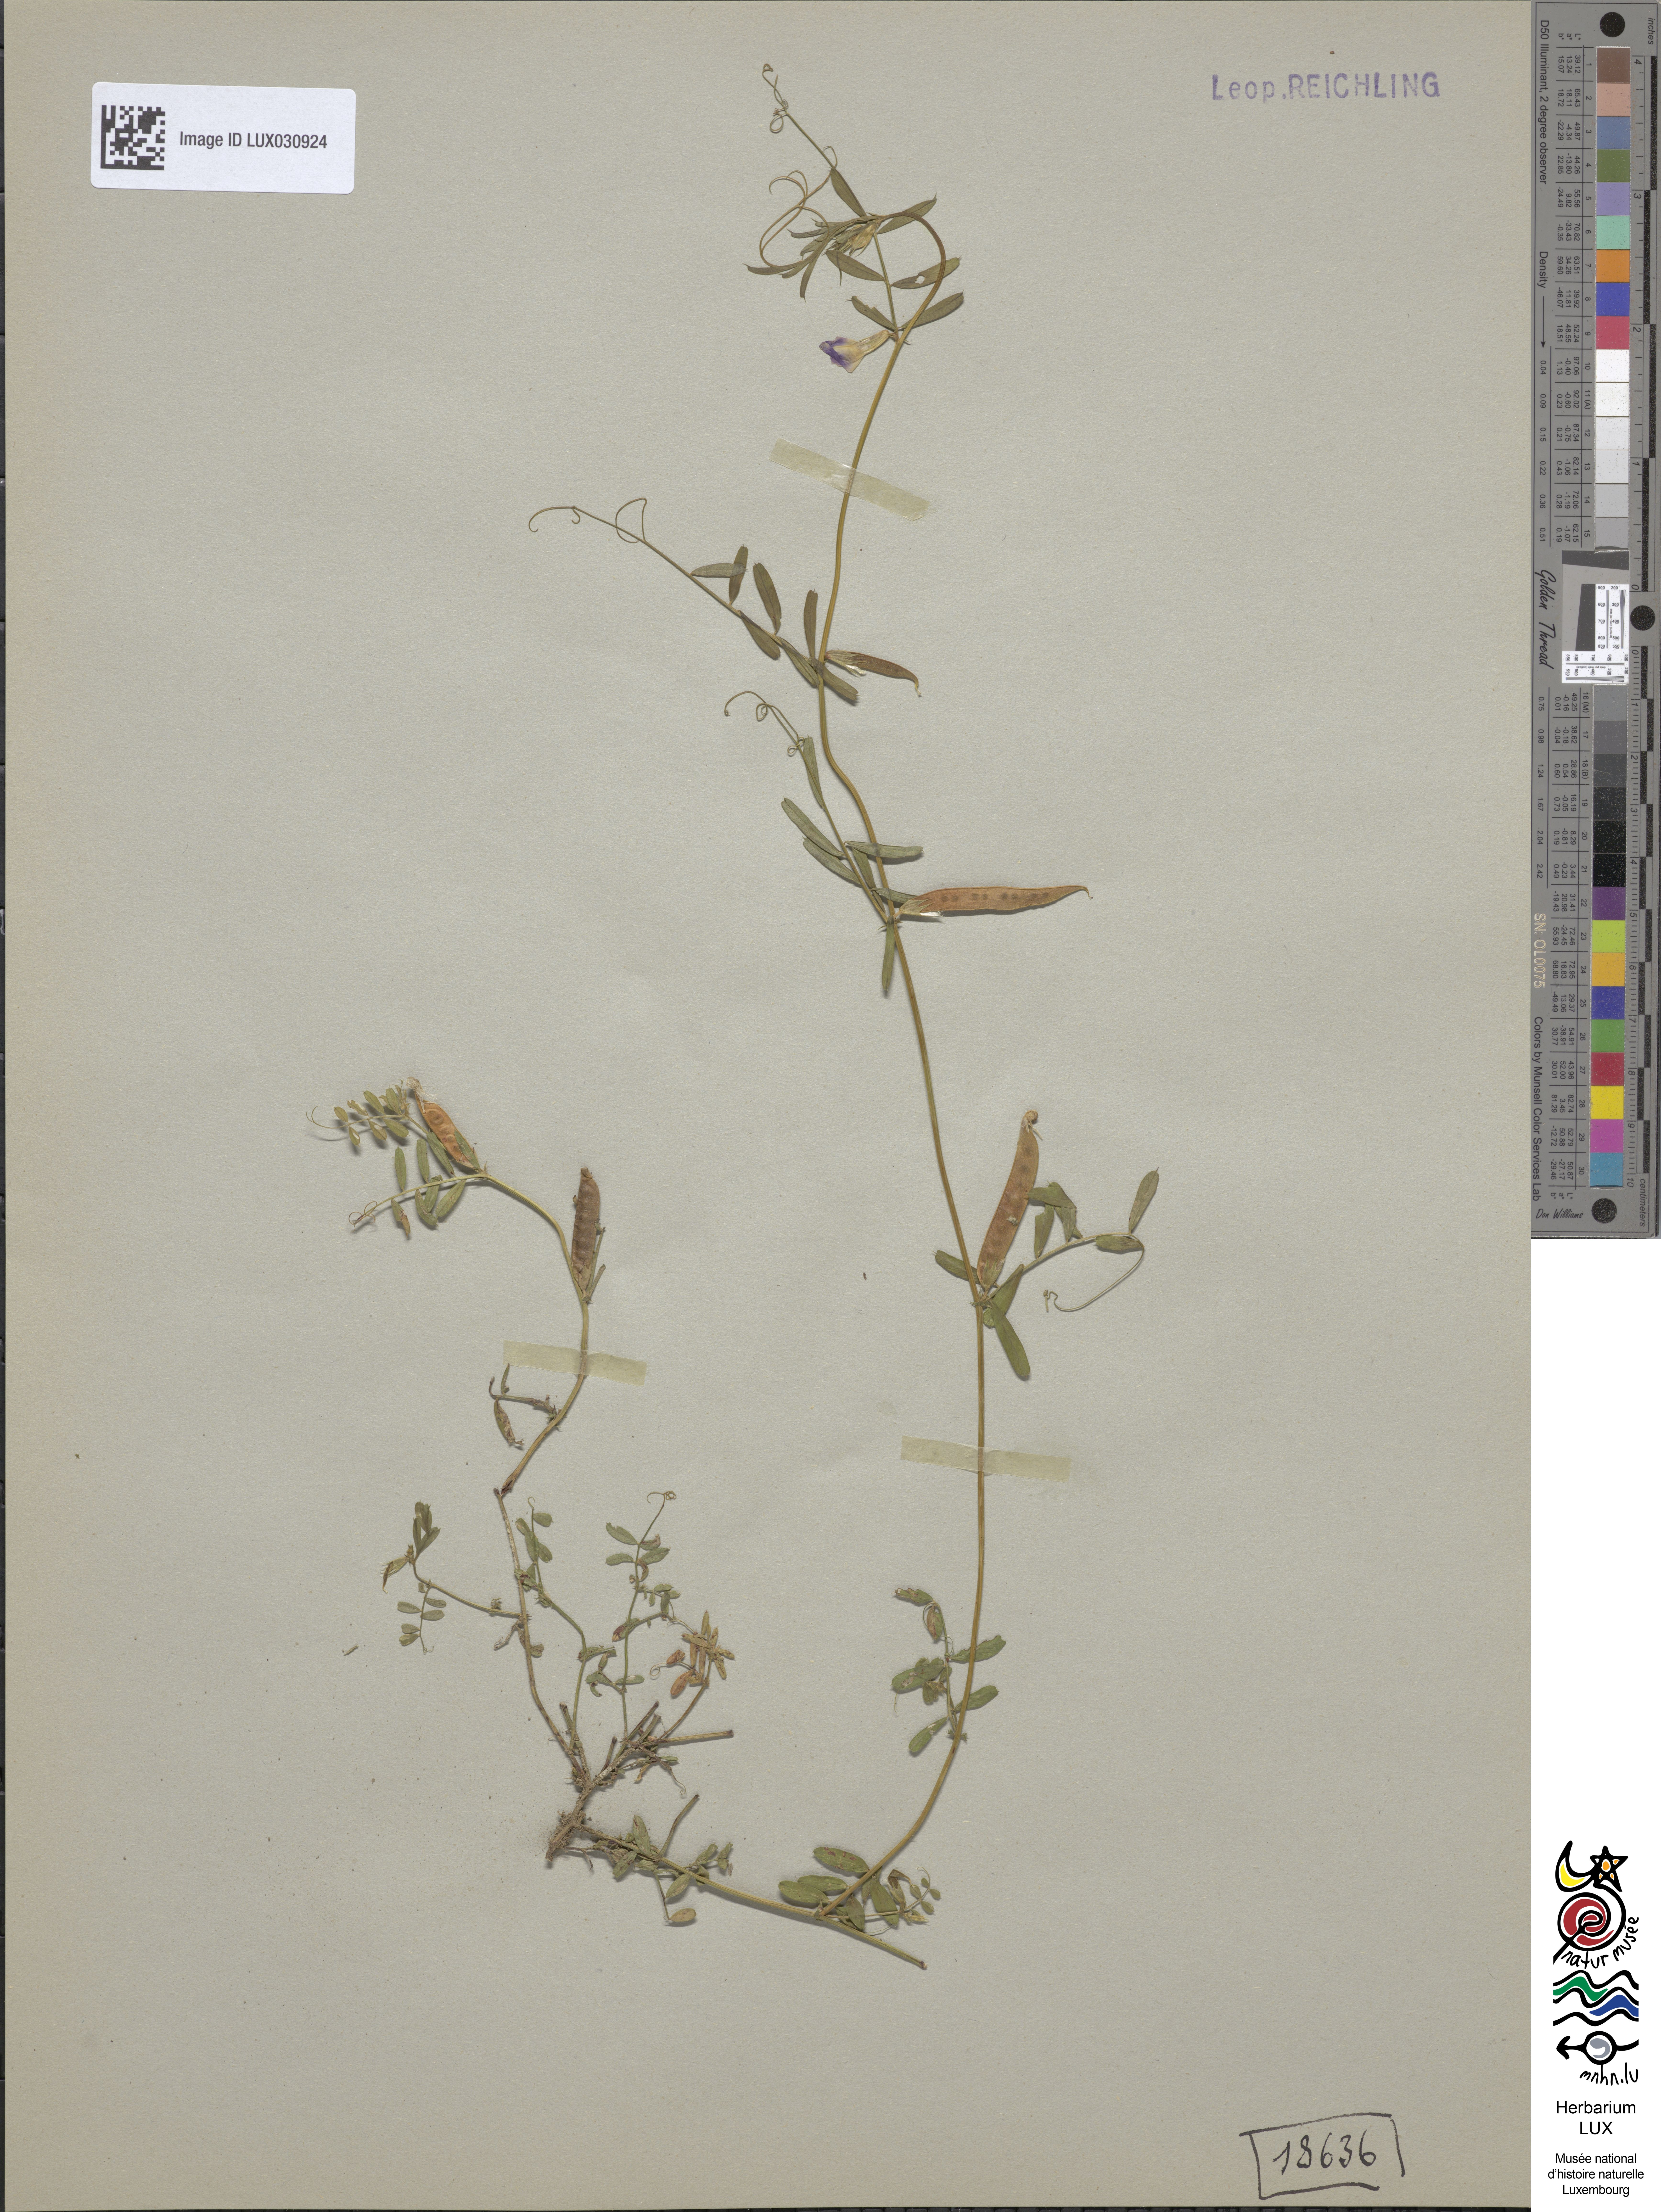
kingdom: Plantae
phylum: Tracheophyta
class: Magnoliopsida
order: Fabales
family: Fabaceae
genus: Vicia
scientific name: Vicia sativa
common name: Garden vetch
